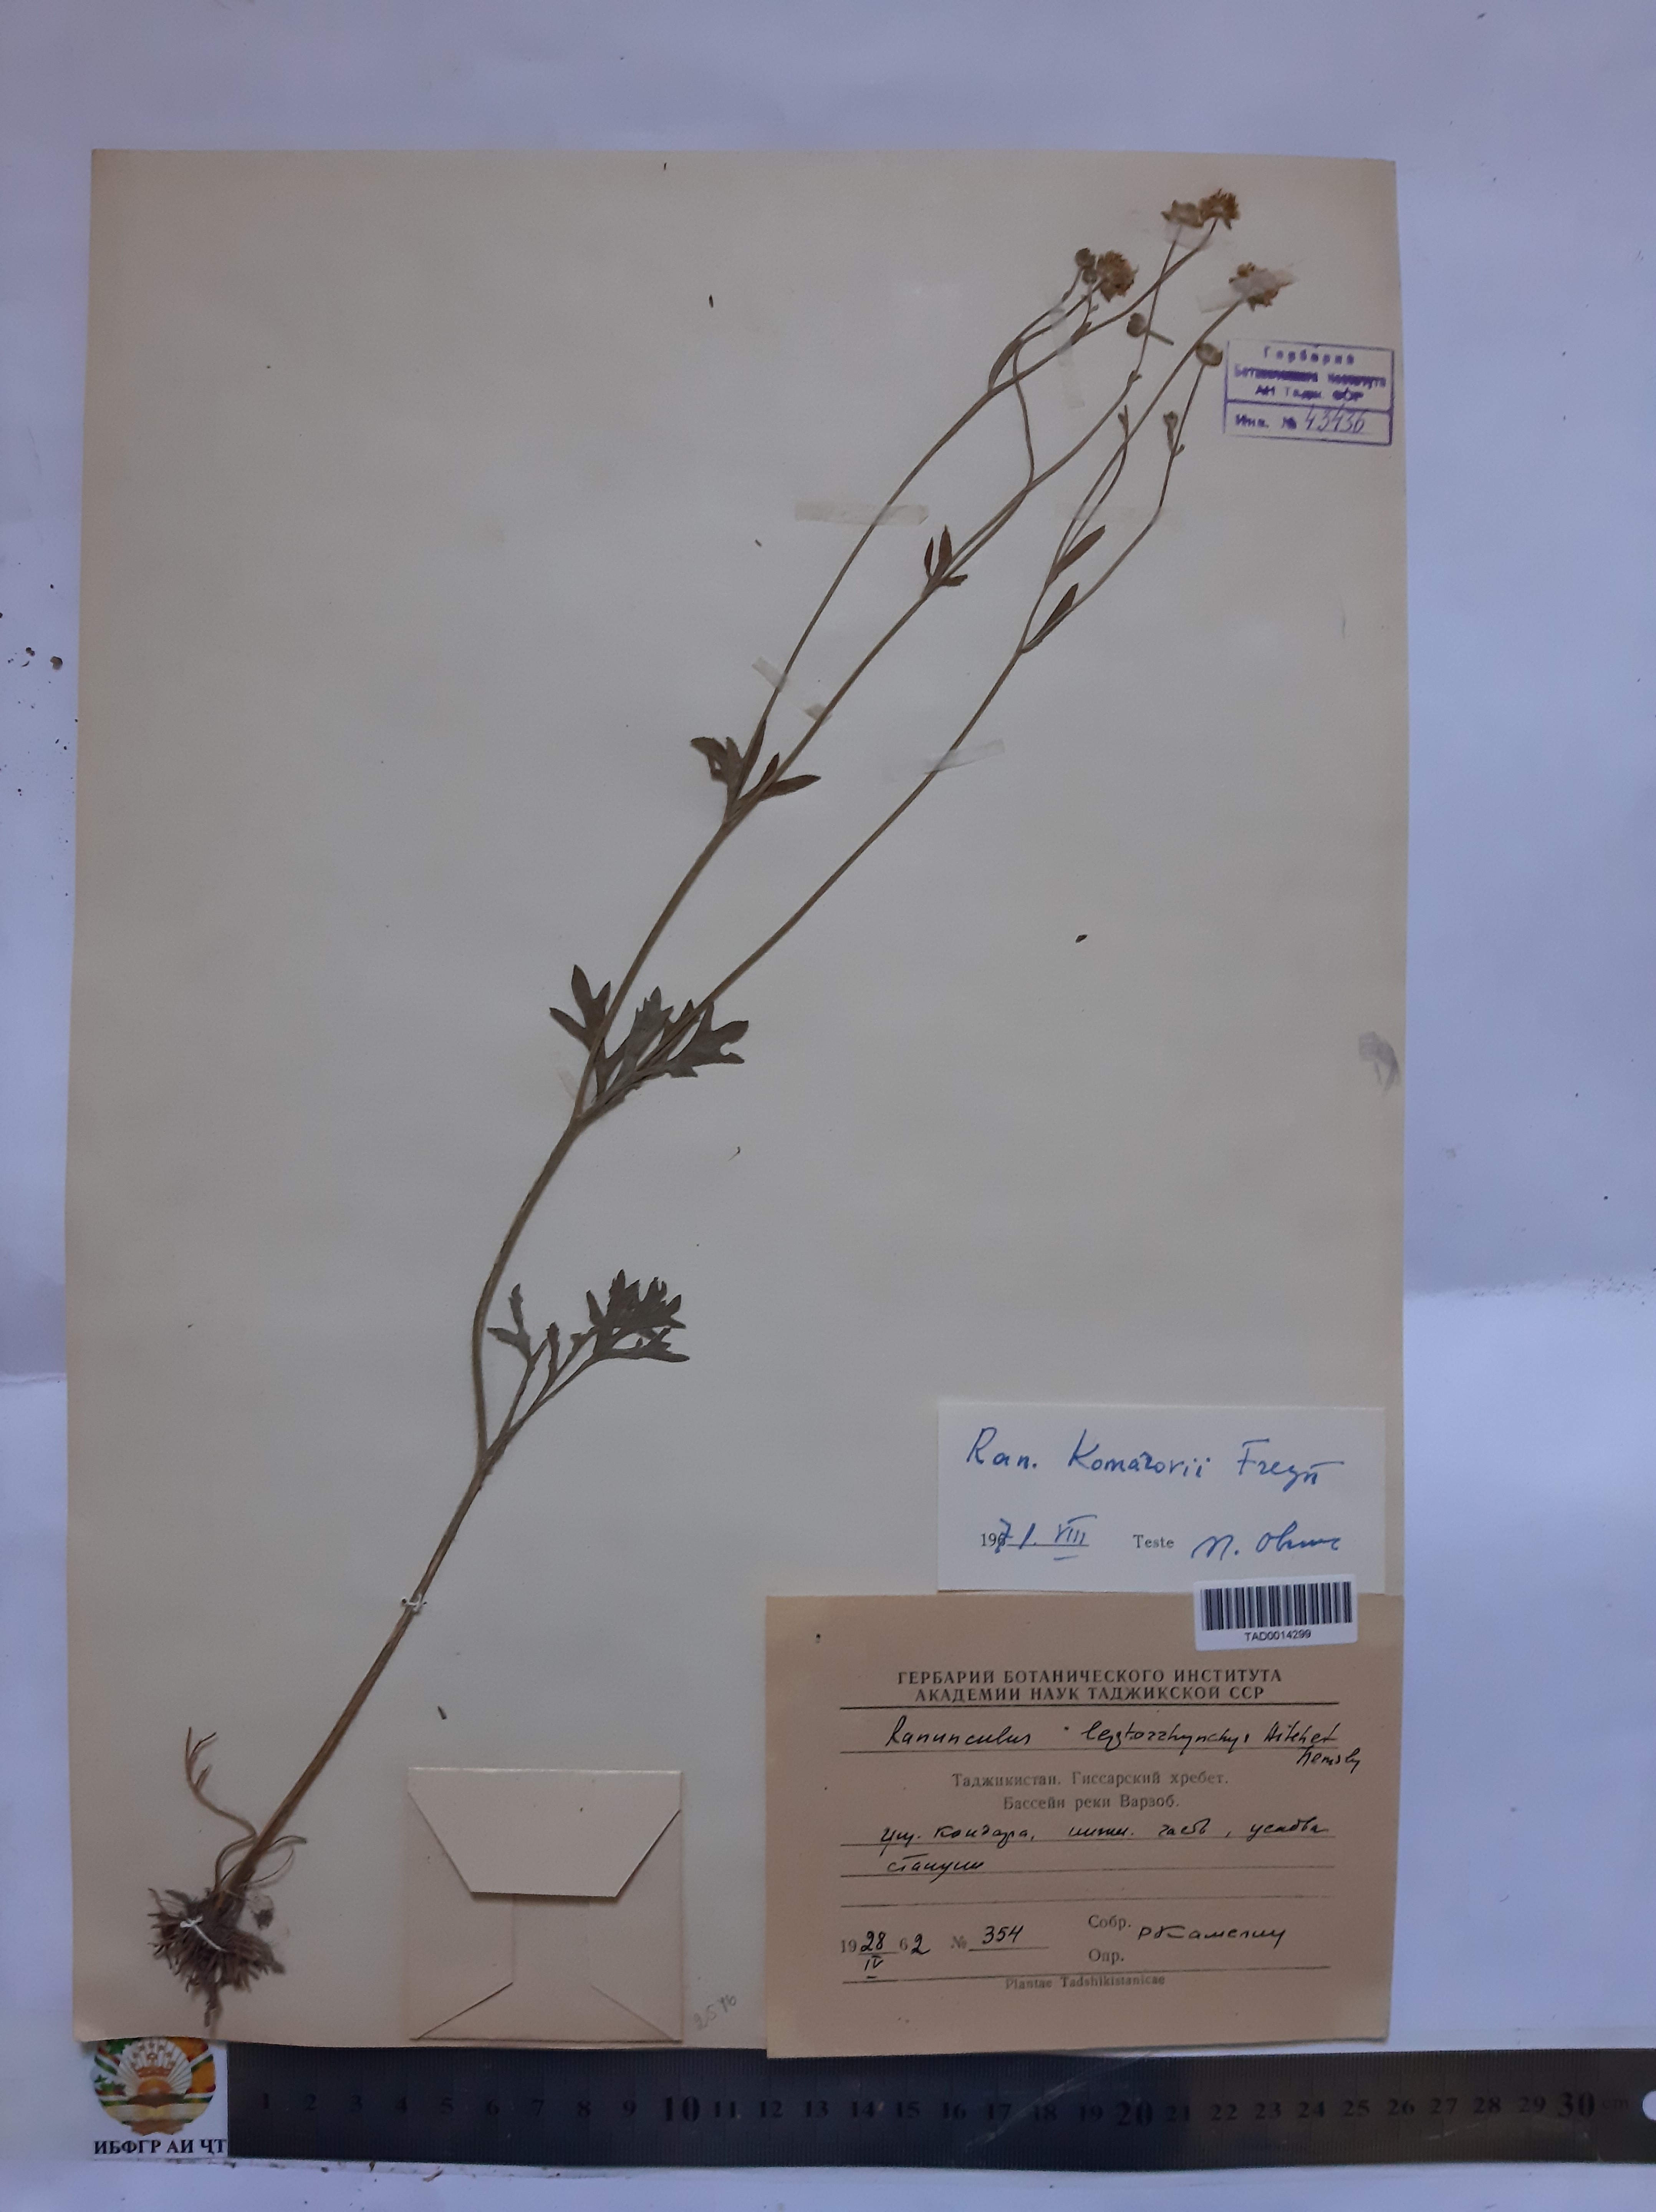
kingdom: Plantae
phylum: Tracheophyta
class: Magnoliopsida
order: Ranunculales
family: Ranunculaceae
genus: Ranunculus
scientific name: Ranunculus komarovii
